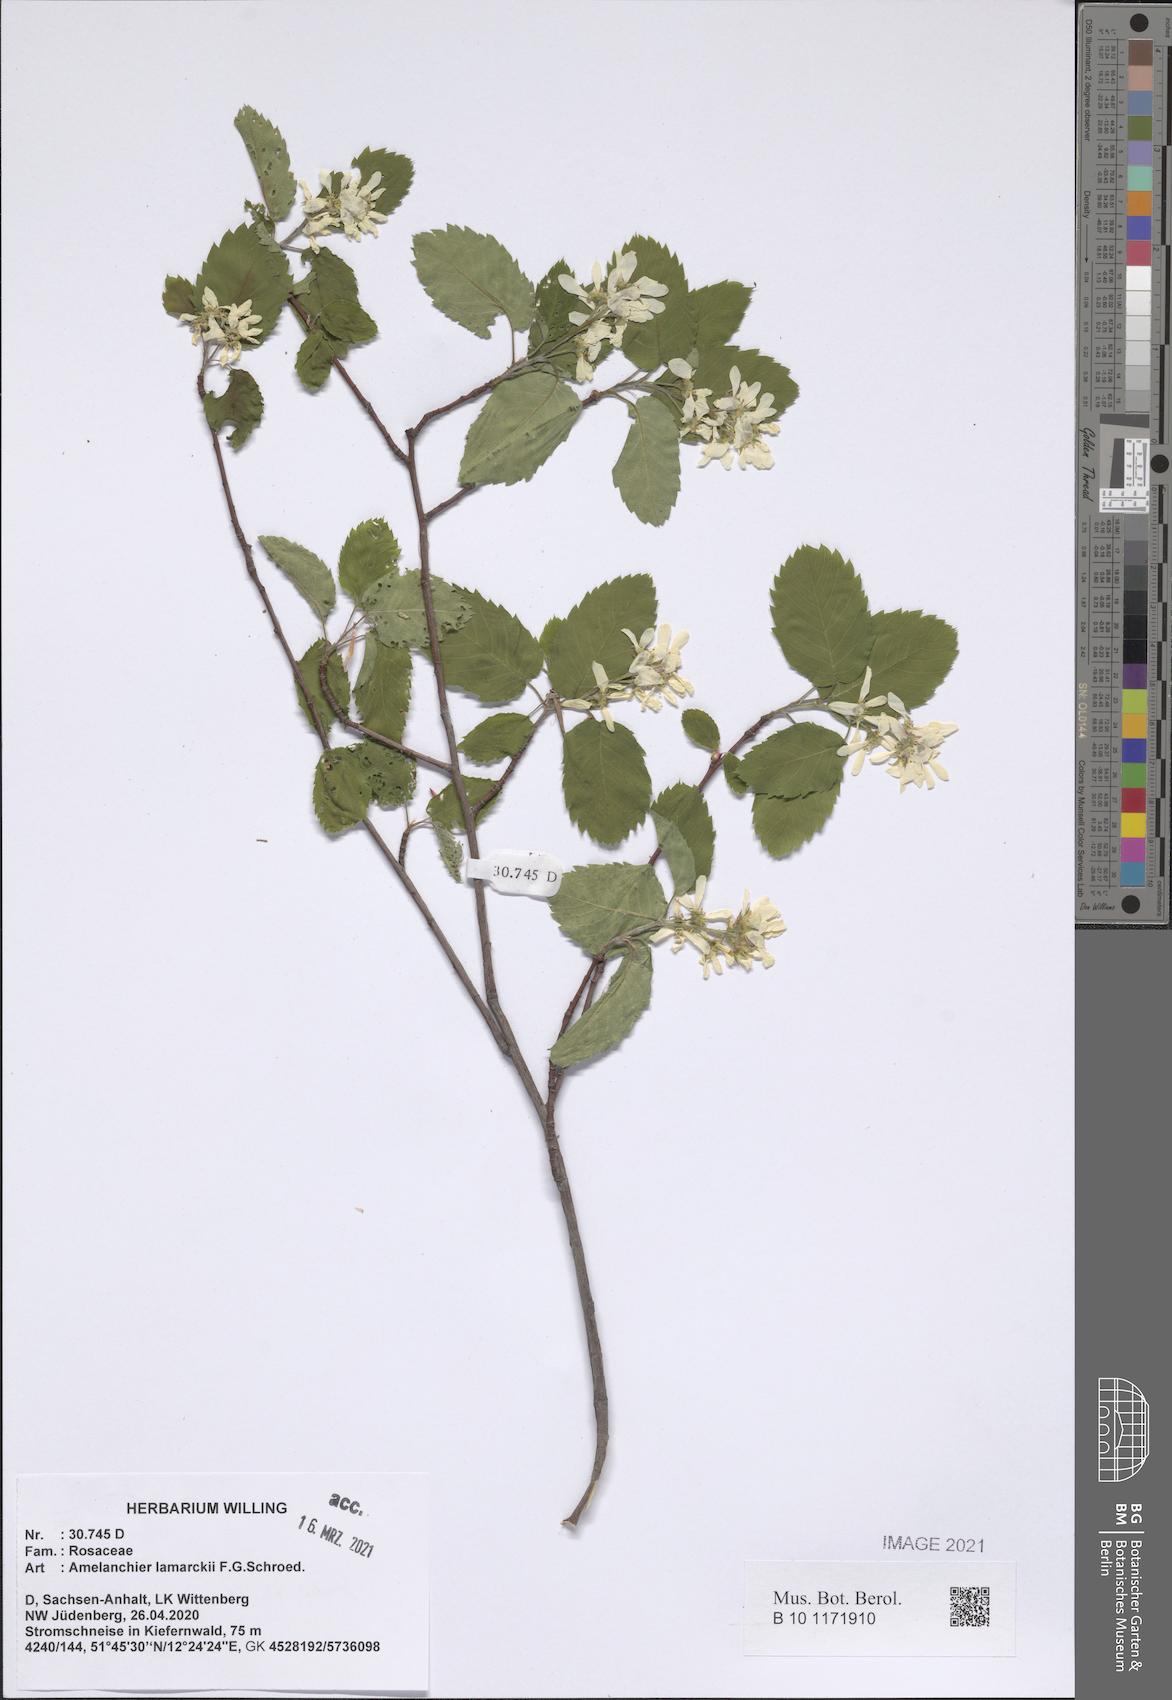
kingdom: Plantae
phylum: Tracheophyta
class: Magnoliopsida
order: Rosales
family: Rosaceae
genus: Amelanchier
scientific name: Amelanchier lamarckii
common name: Juneberry
